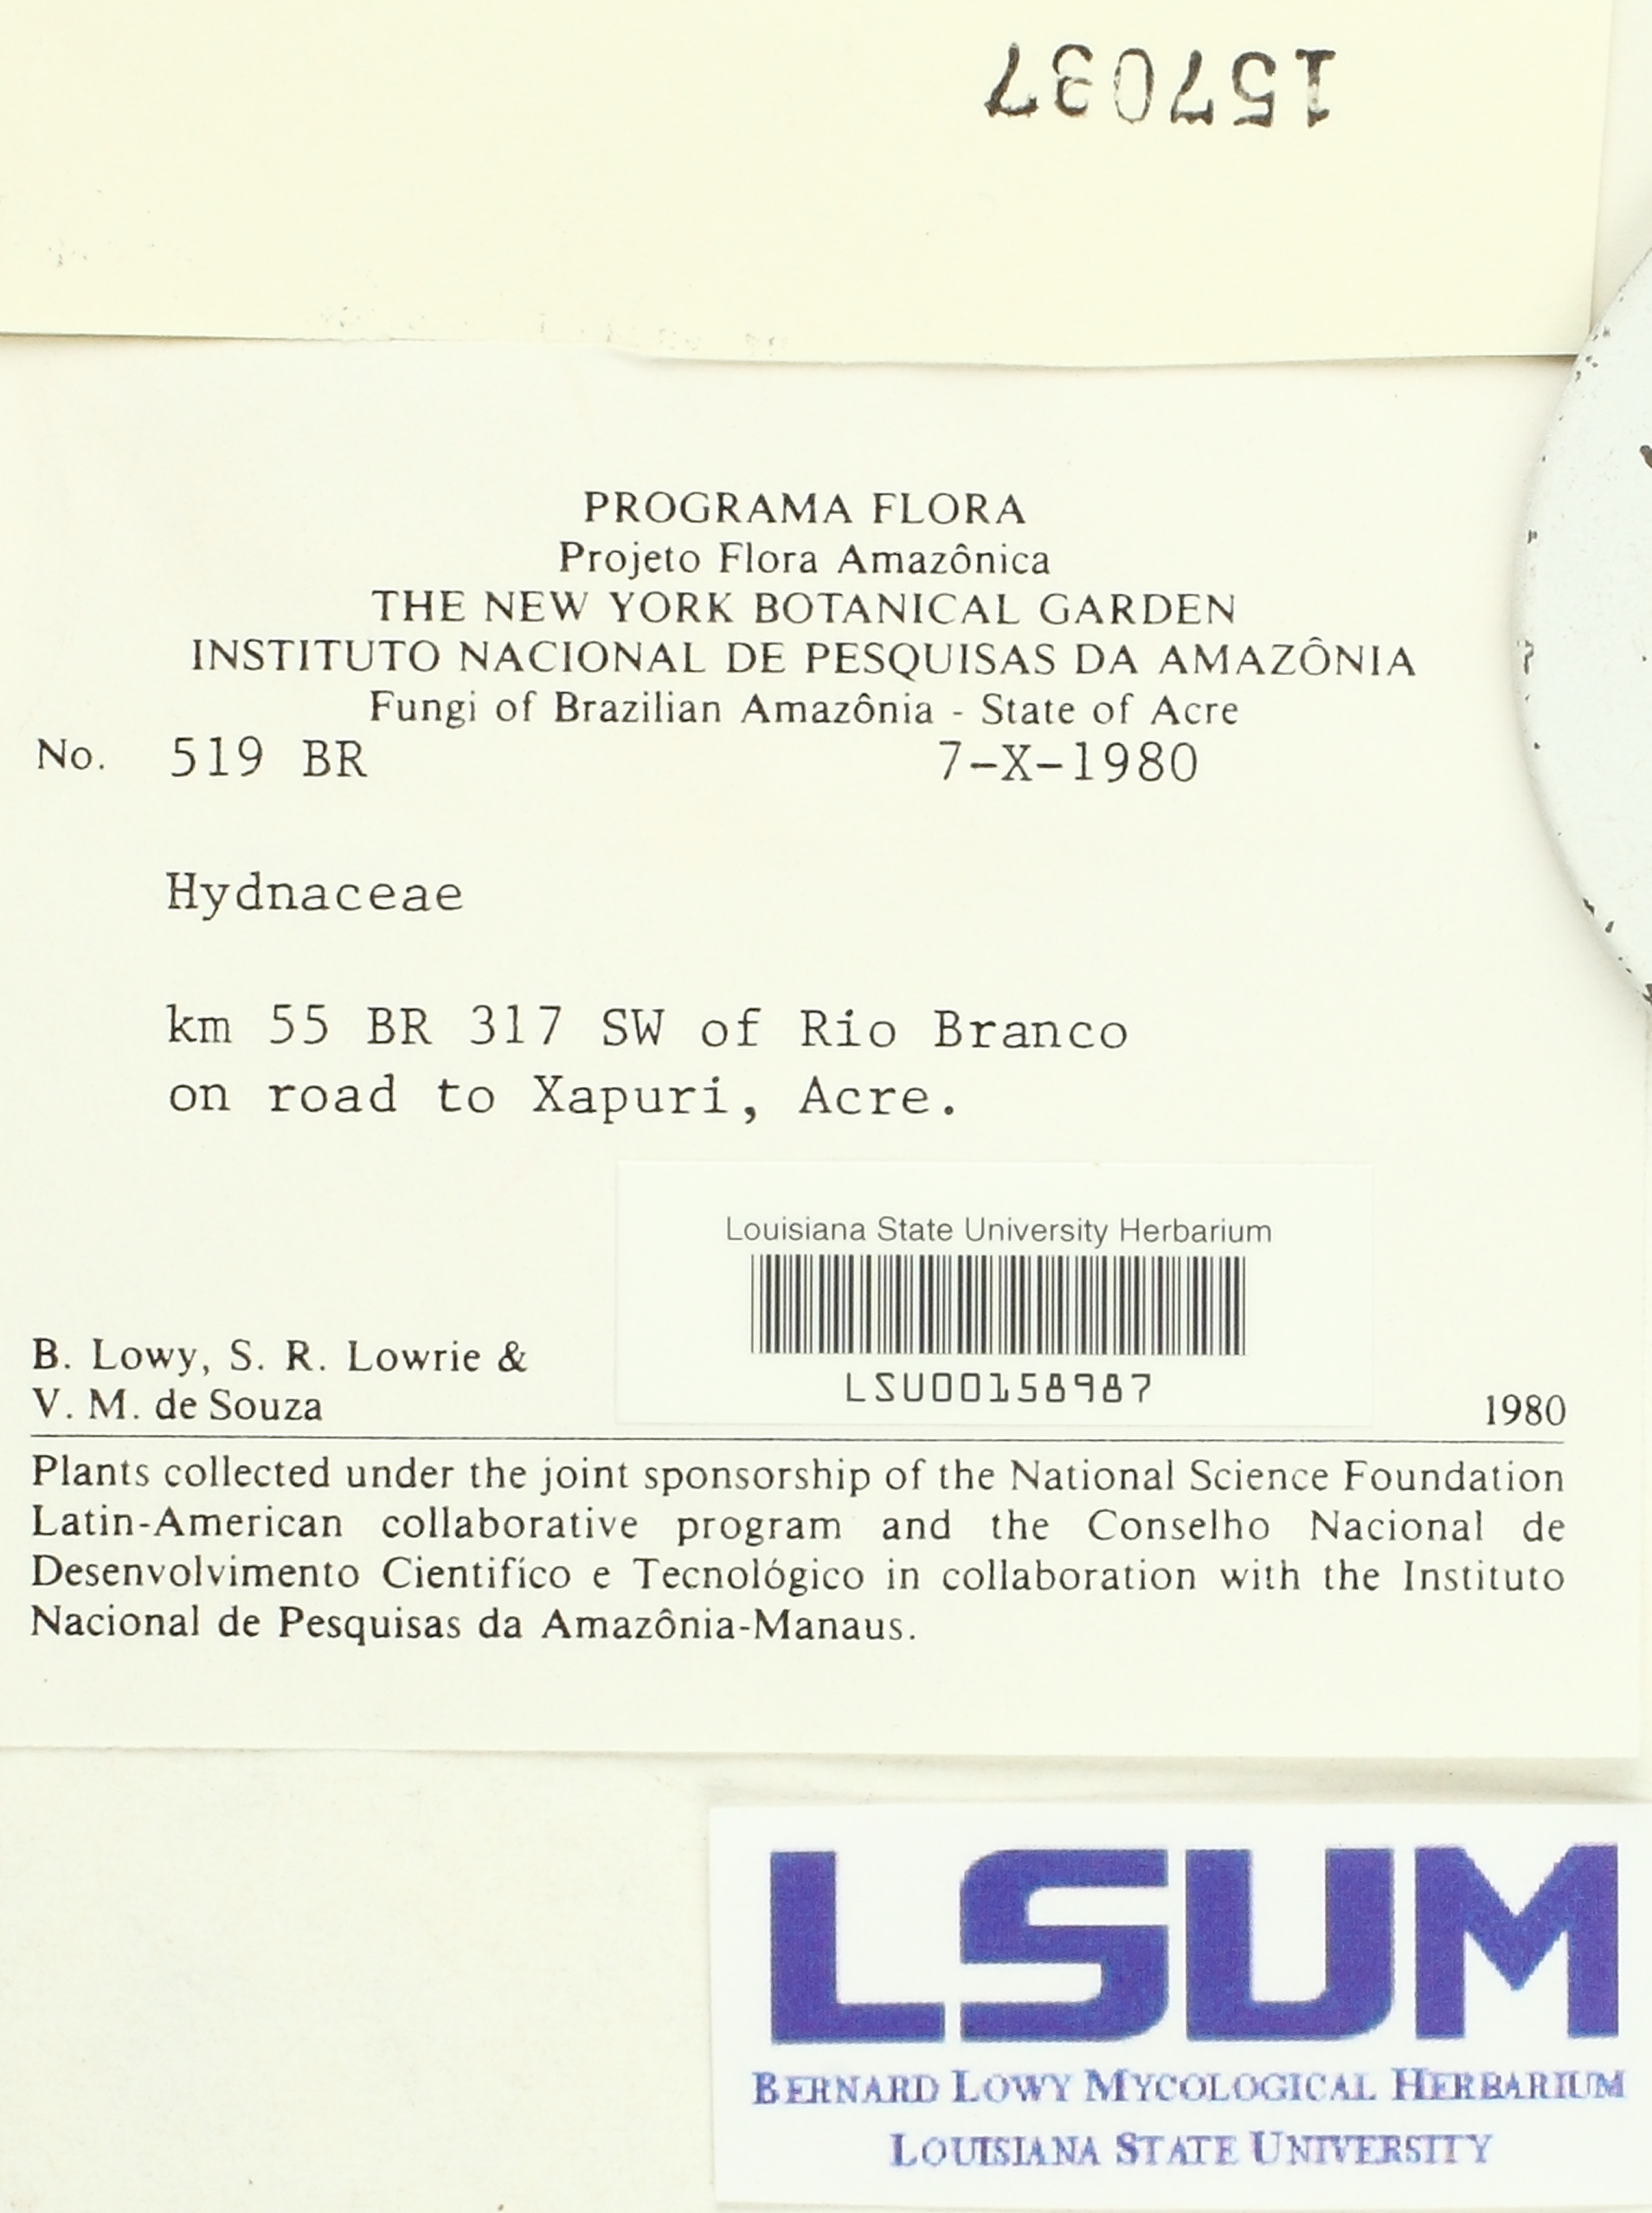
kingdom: Fungi
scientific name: Fungi
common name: Fungi
